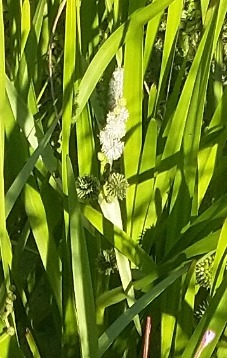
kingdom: Plantae
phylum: Tracheophyta
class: Liliopsida
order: Poales
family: Typhaceae
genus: Sparganium
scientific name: Sparganium erectum
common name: Ten-pindsvineknop
